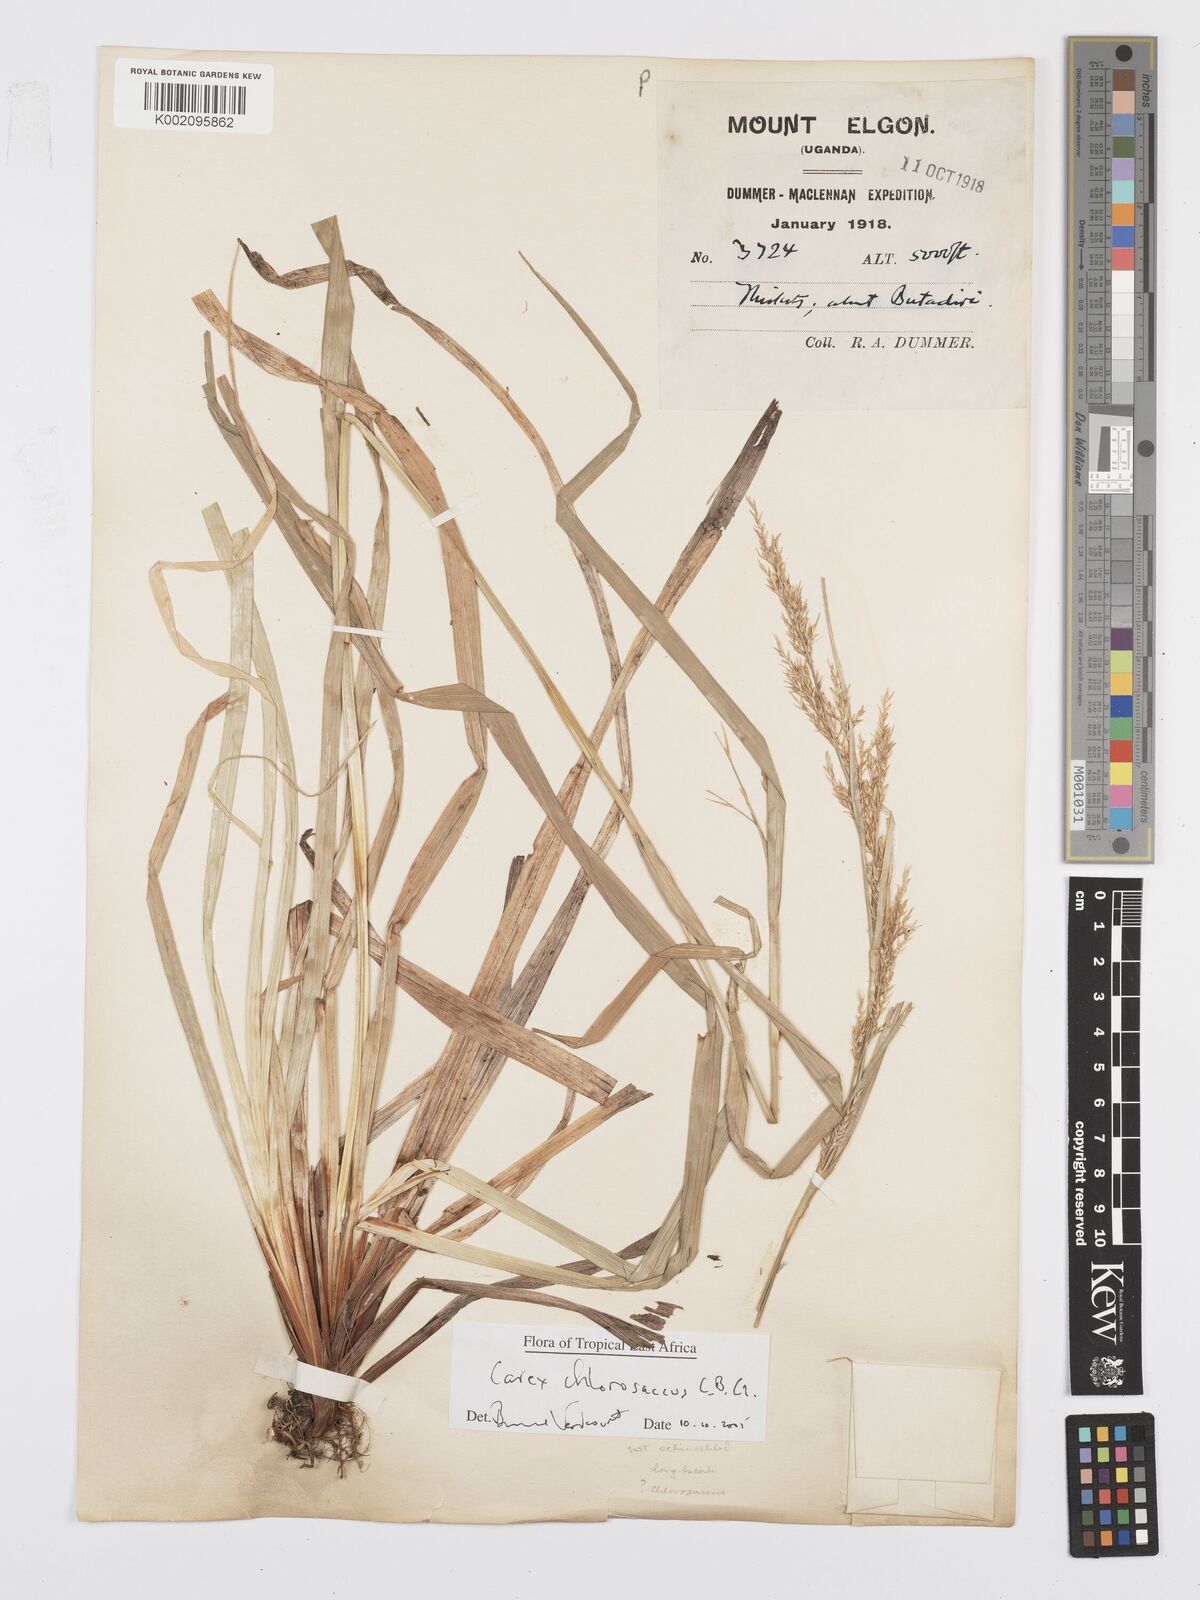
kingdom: Plantae
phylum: Tracheophyta
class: Liliopsida
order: Poales
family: Cyperaceae
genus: Carex
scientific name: Carex chlorosaccus
